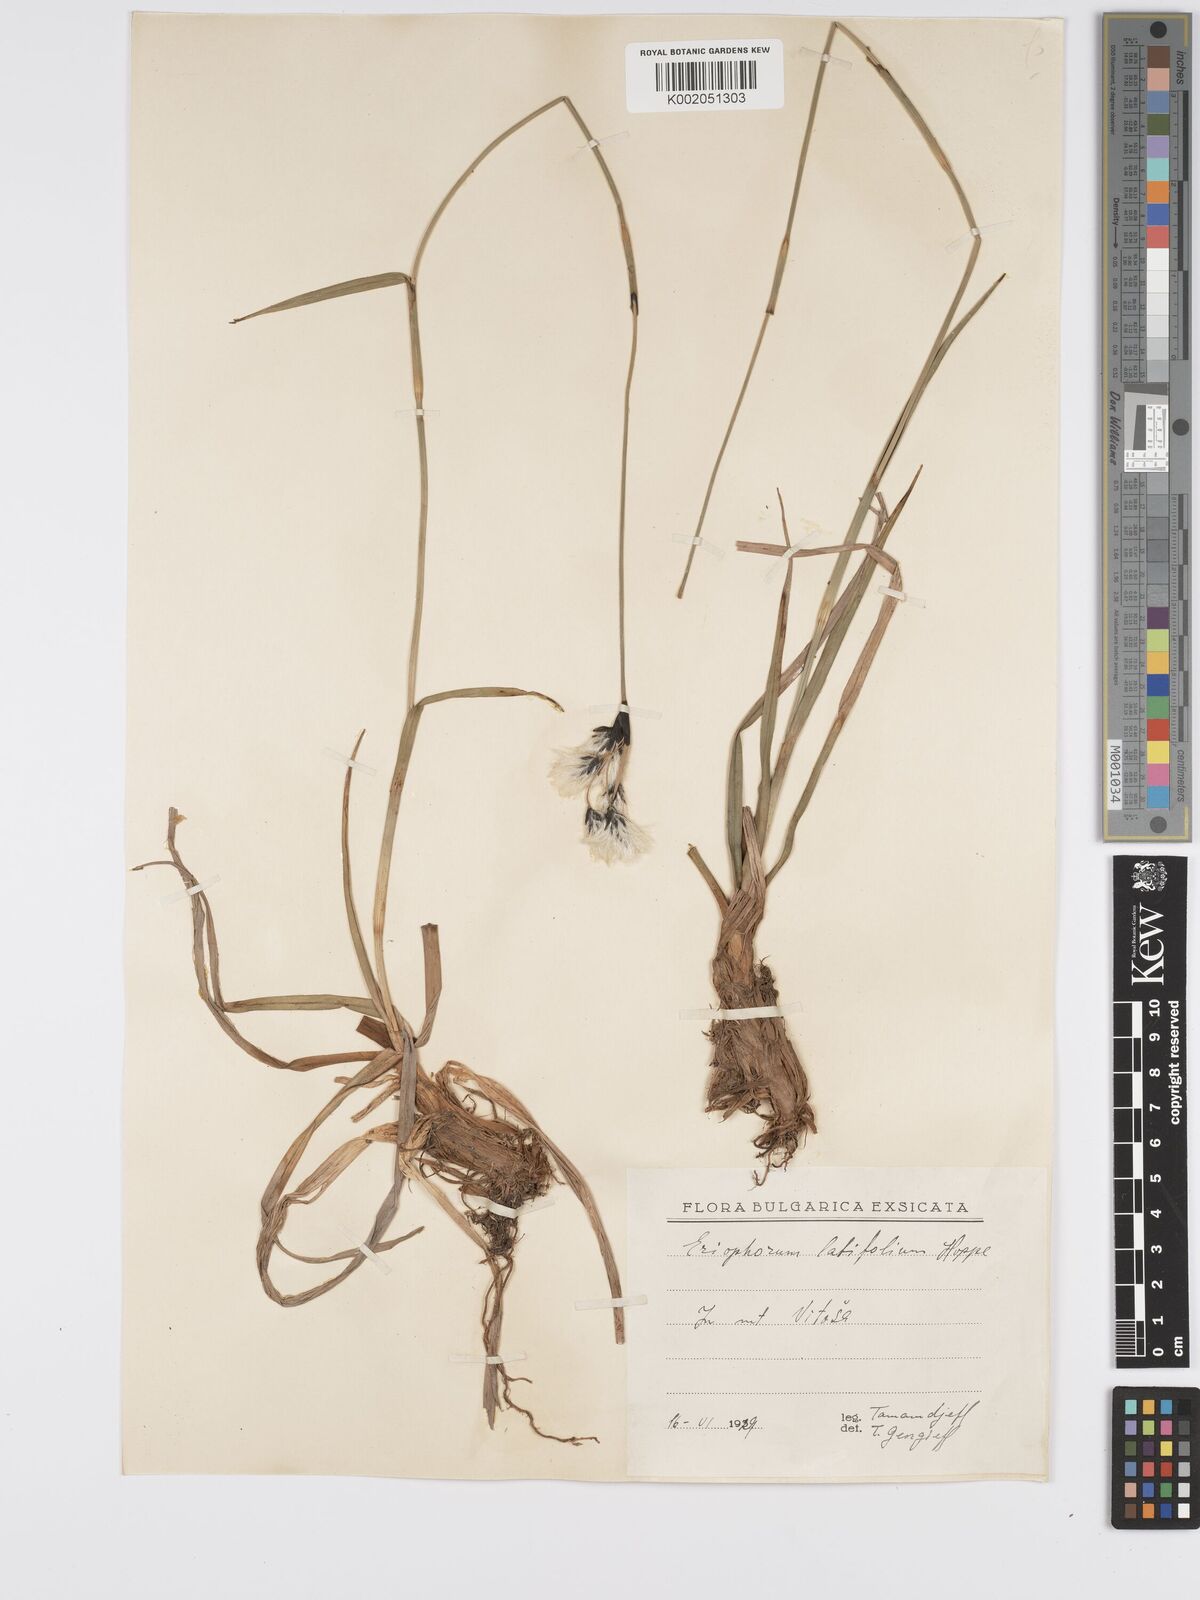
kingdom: Plantae
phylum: Tracheophyta
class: Liliopsida
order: Poales
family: Cyperaceae
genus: Eriophorum
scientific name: Eriophorum latifolium
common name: Broad-leaved cottongrass
